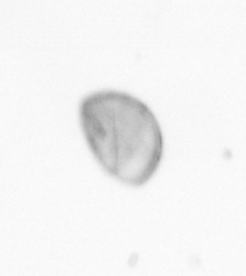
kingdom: Chromista
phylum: Ochrophyta
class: Bacillariophyceae
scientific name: Bacillariophyceae
